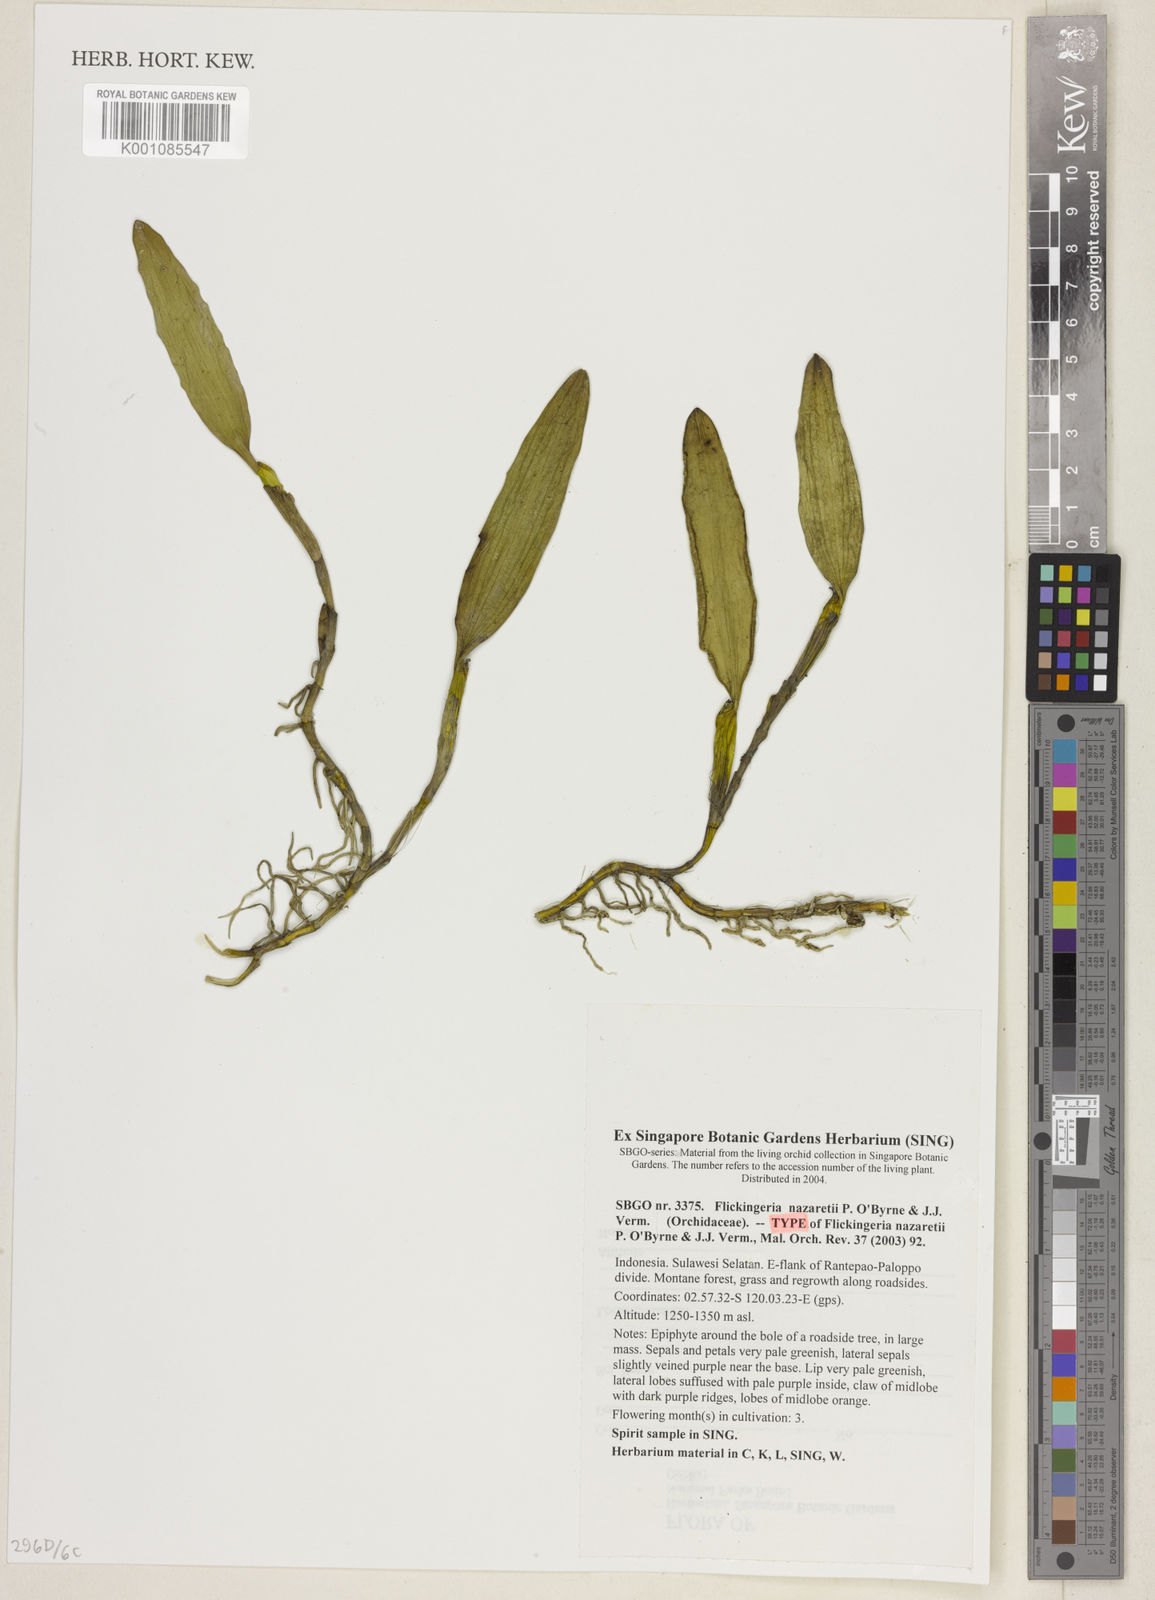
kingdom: Plantae
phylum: Tracheophyta
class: Liliopsida
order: Asparagales
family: Orchidaceae
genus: Dendrobium
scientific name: Dendrobium nazaretii
